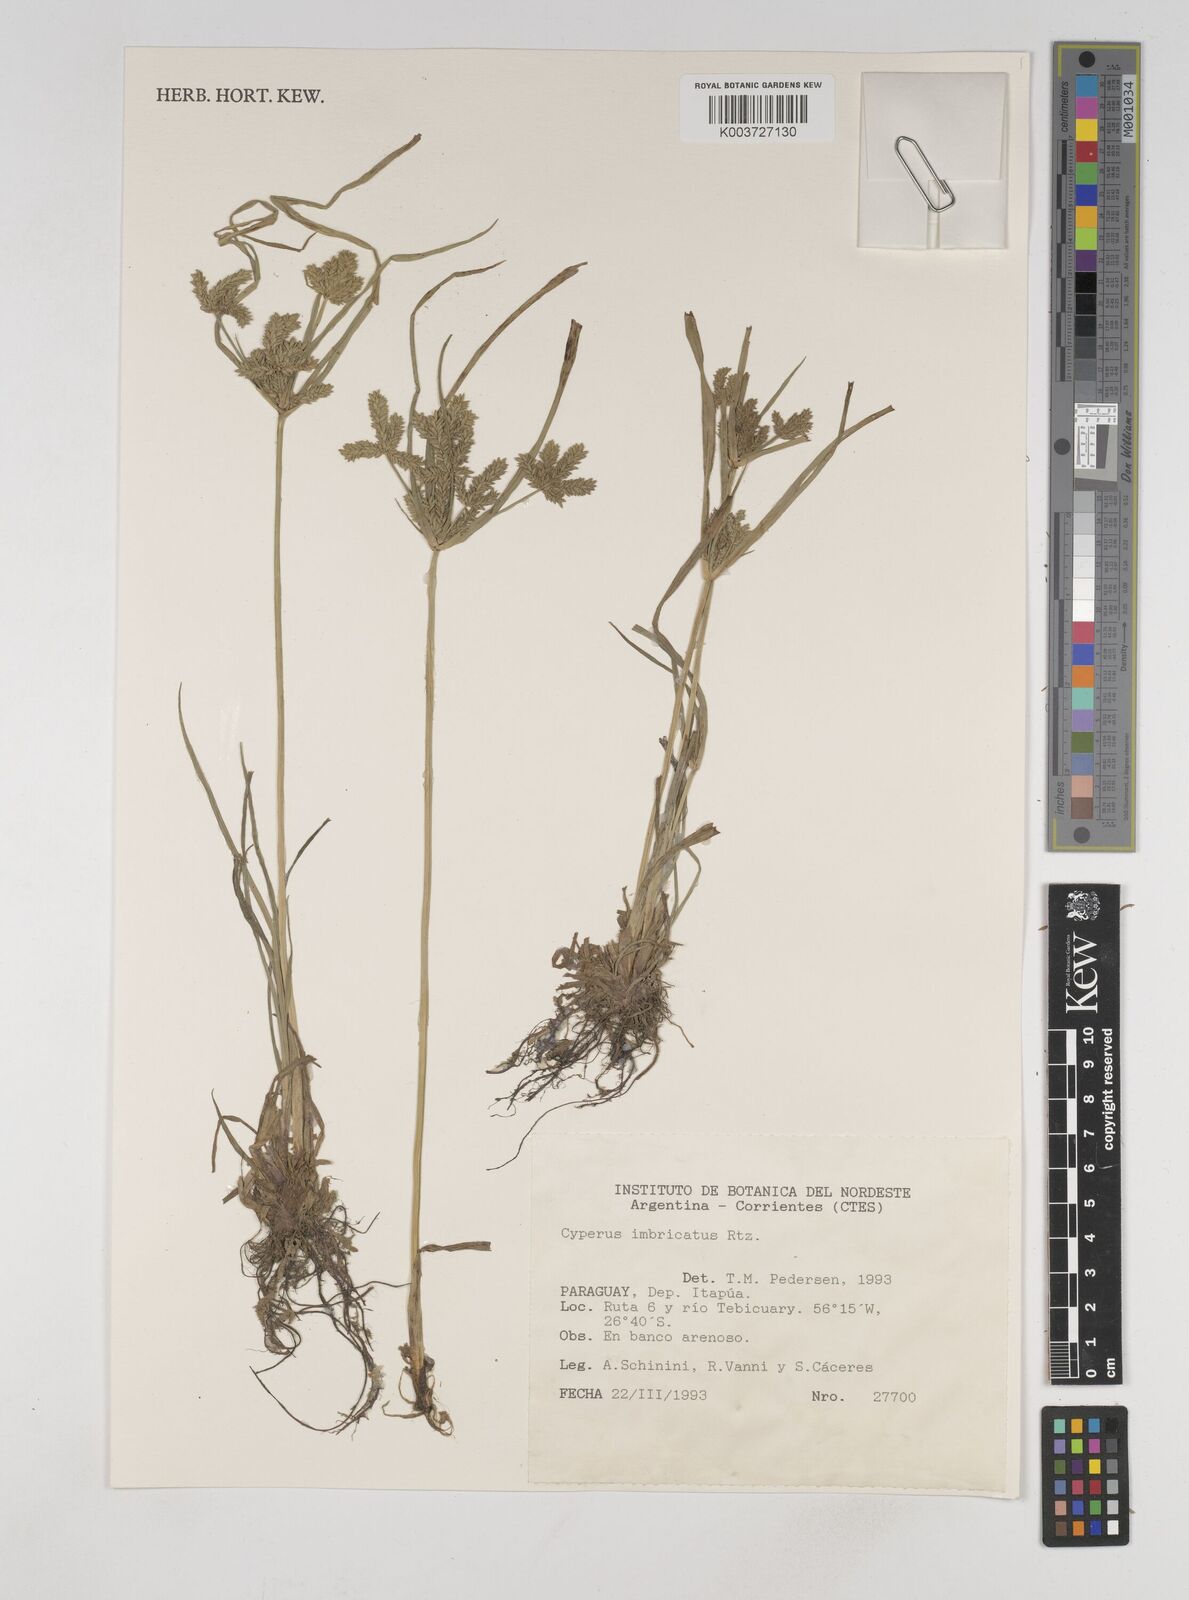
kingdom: Plantae
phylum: Tracheophyta
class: Liliopsida
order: Poales
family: Cyperaceae
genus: Cyperus
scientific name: Cyperus imbricatus
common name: Shingle flatsedge
